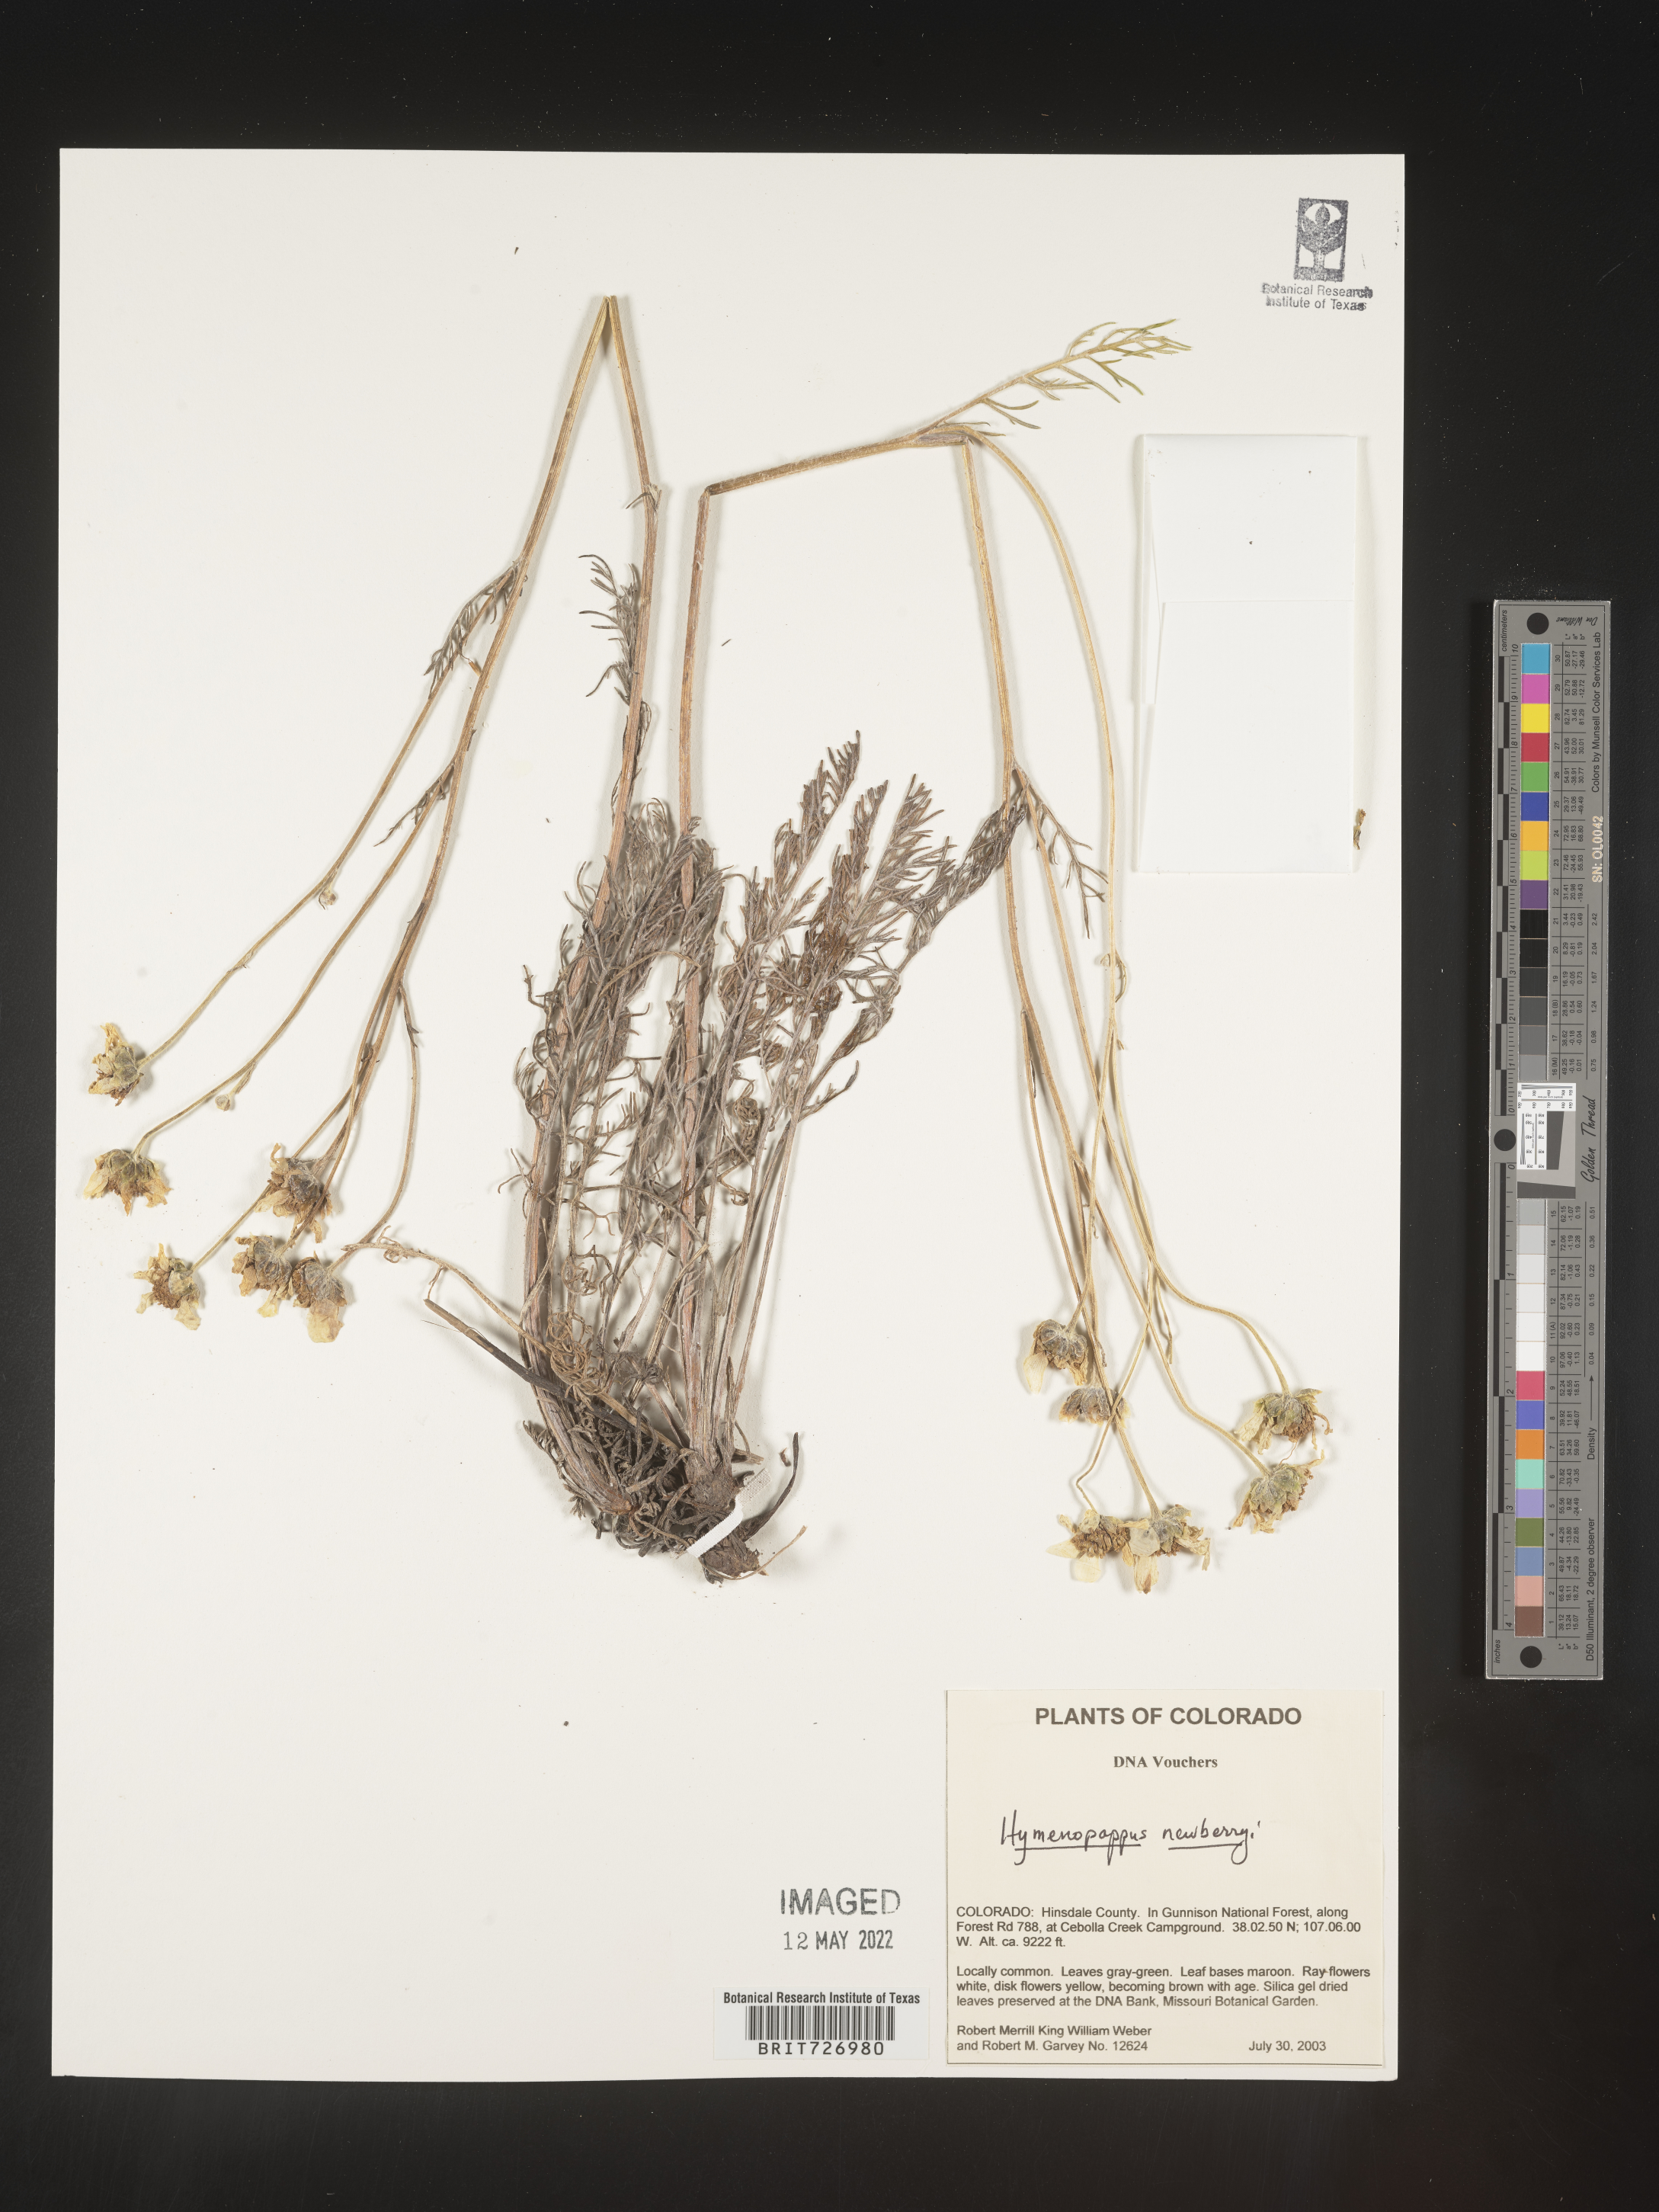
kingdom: Plantae
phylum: Tracheophyta
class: Magnoliopsida
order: Asterales
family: Asteraceae
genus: Hymenopappus
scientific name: Hymenopappus newberryi
